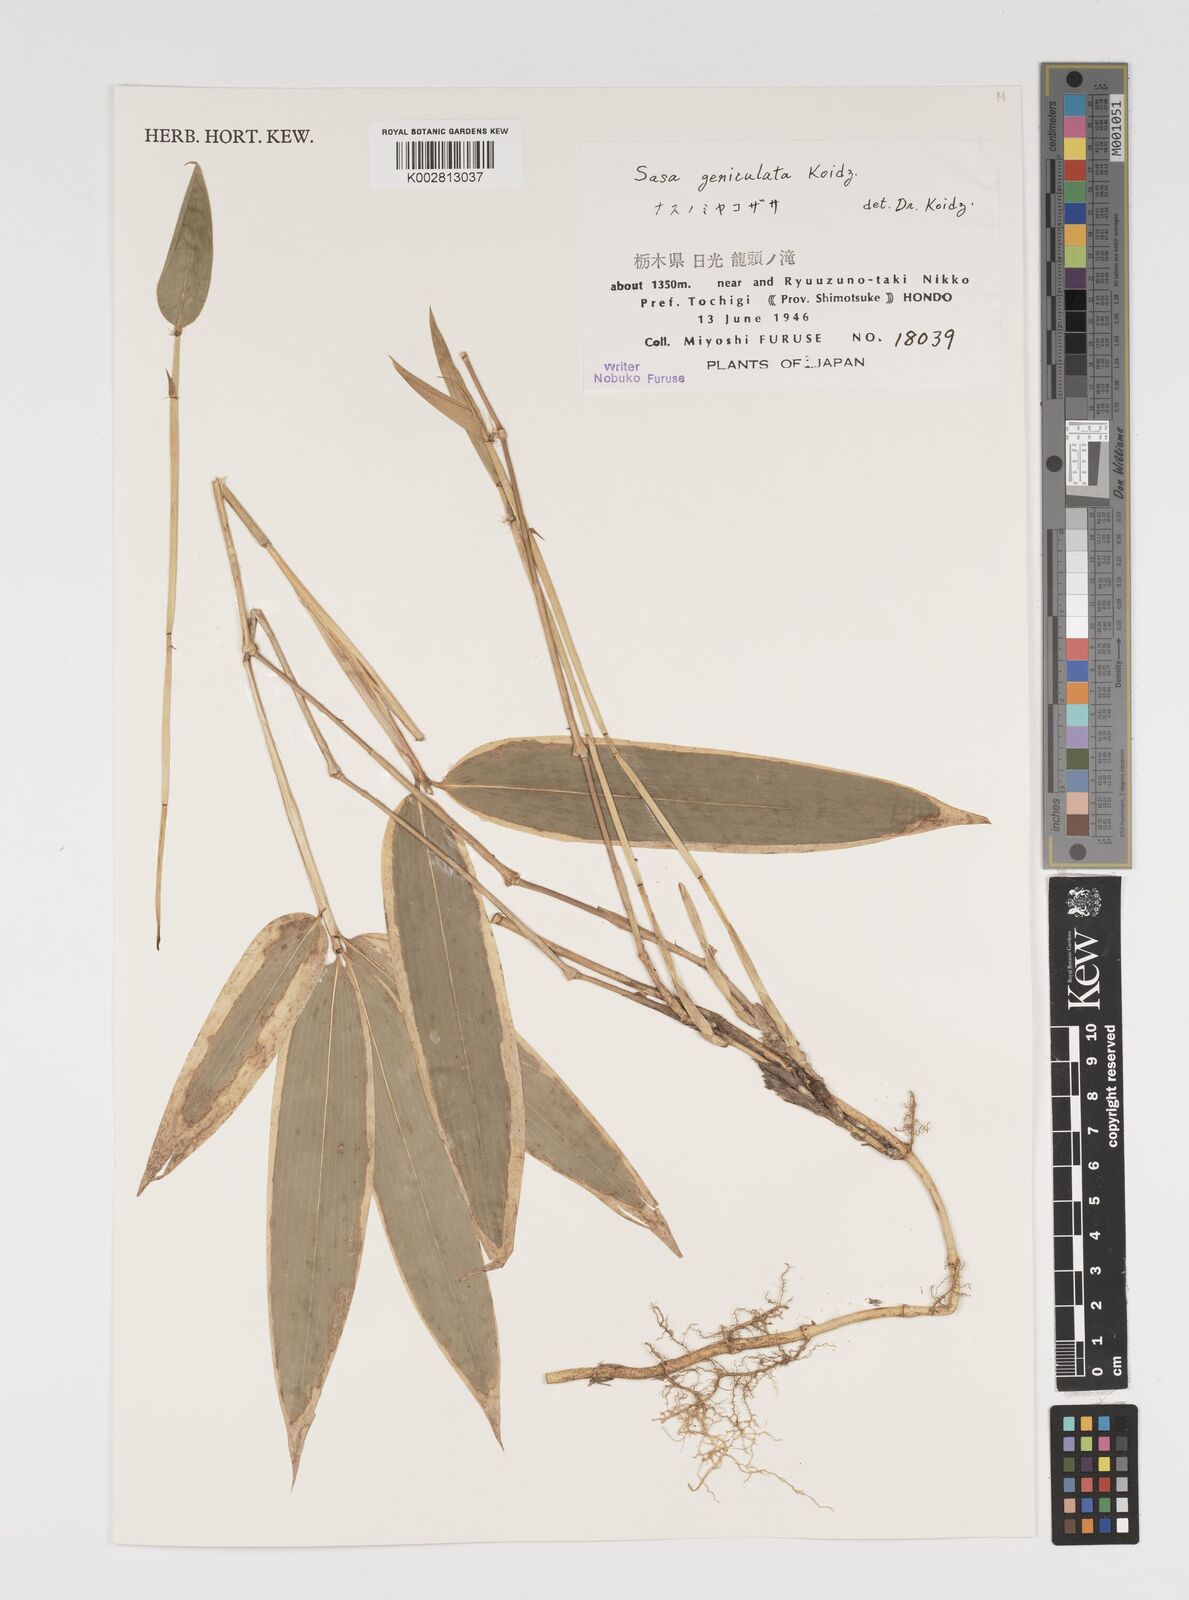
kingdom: Plantae
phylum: Tracheophyta
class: Liliopsida
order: Poales
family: Poaceae
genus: Sasa
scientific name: Sasa samaniana
